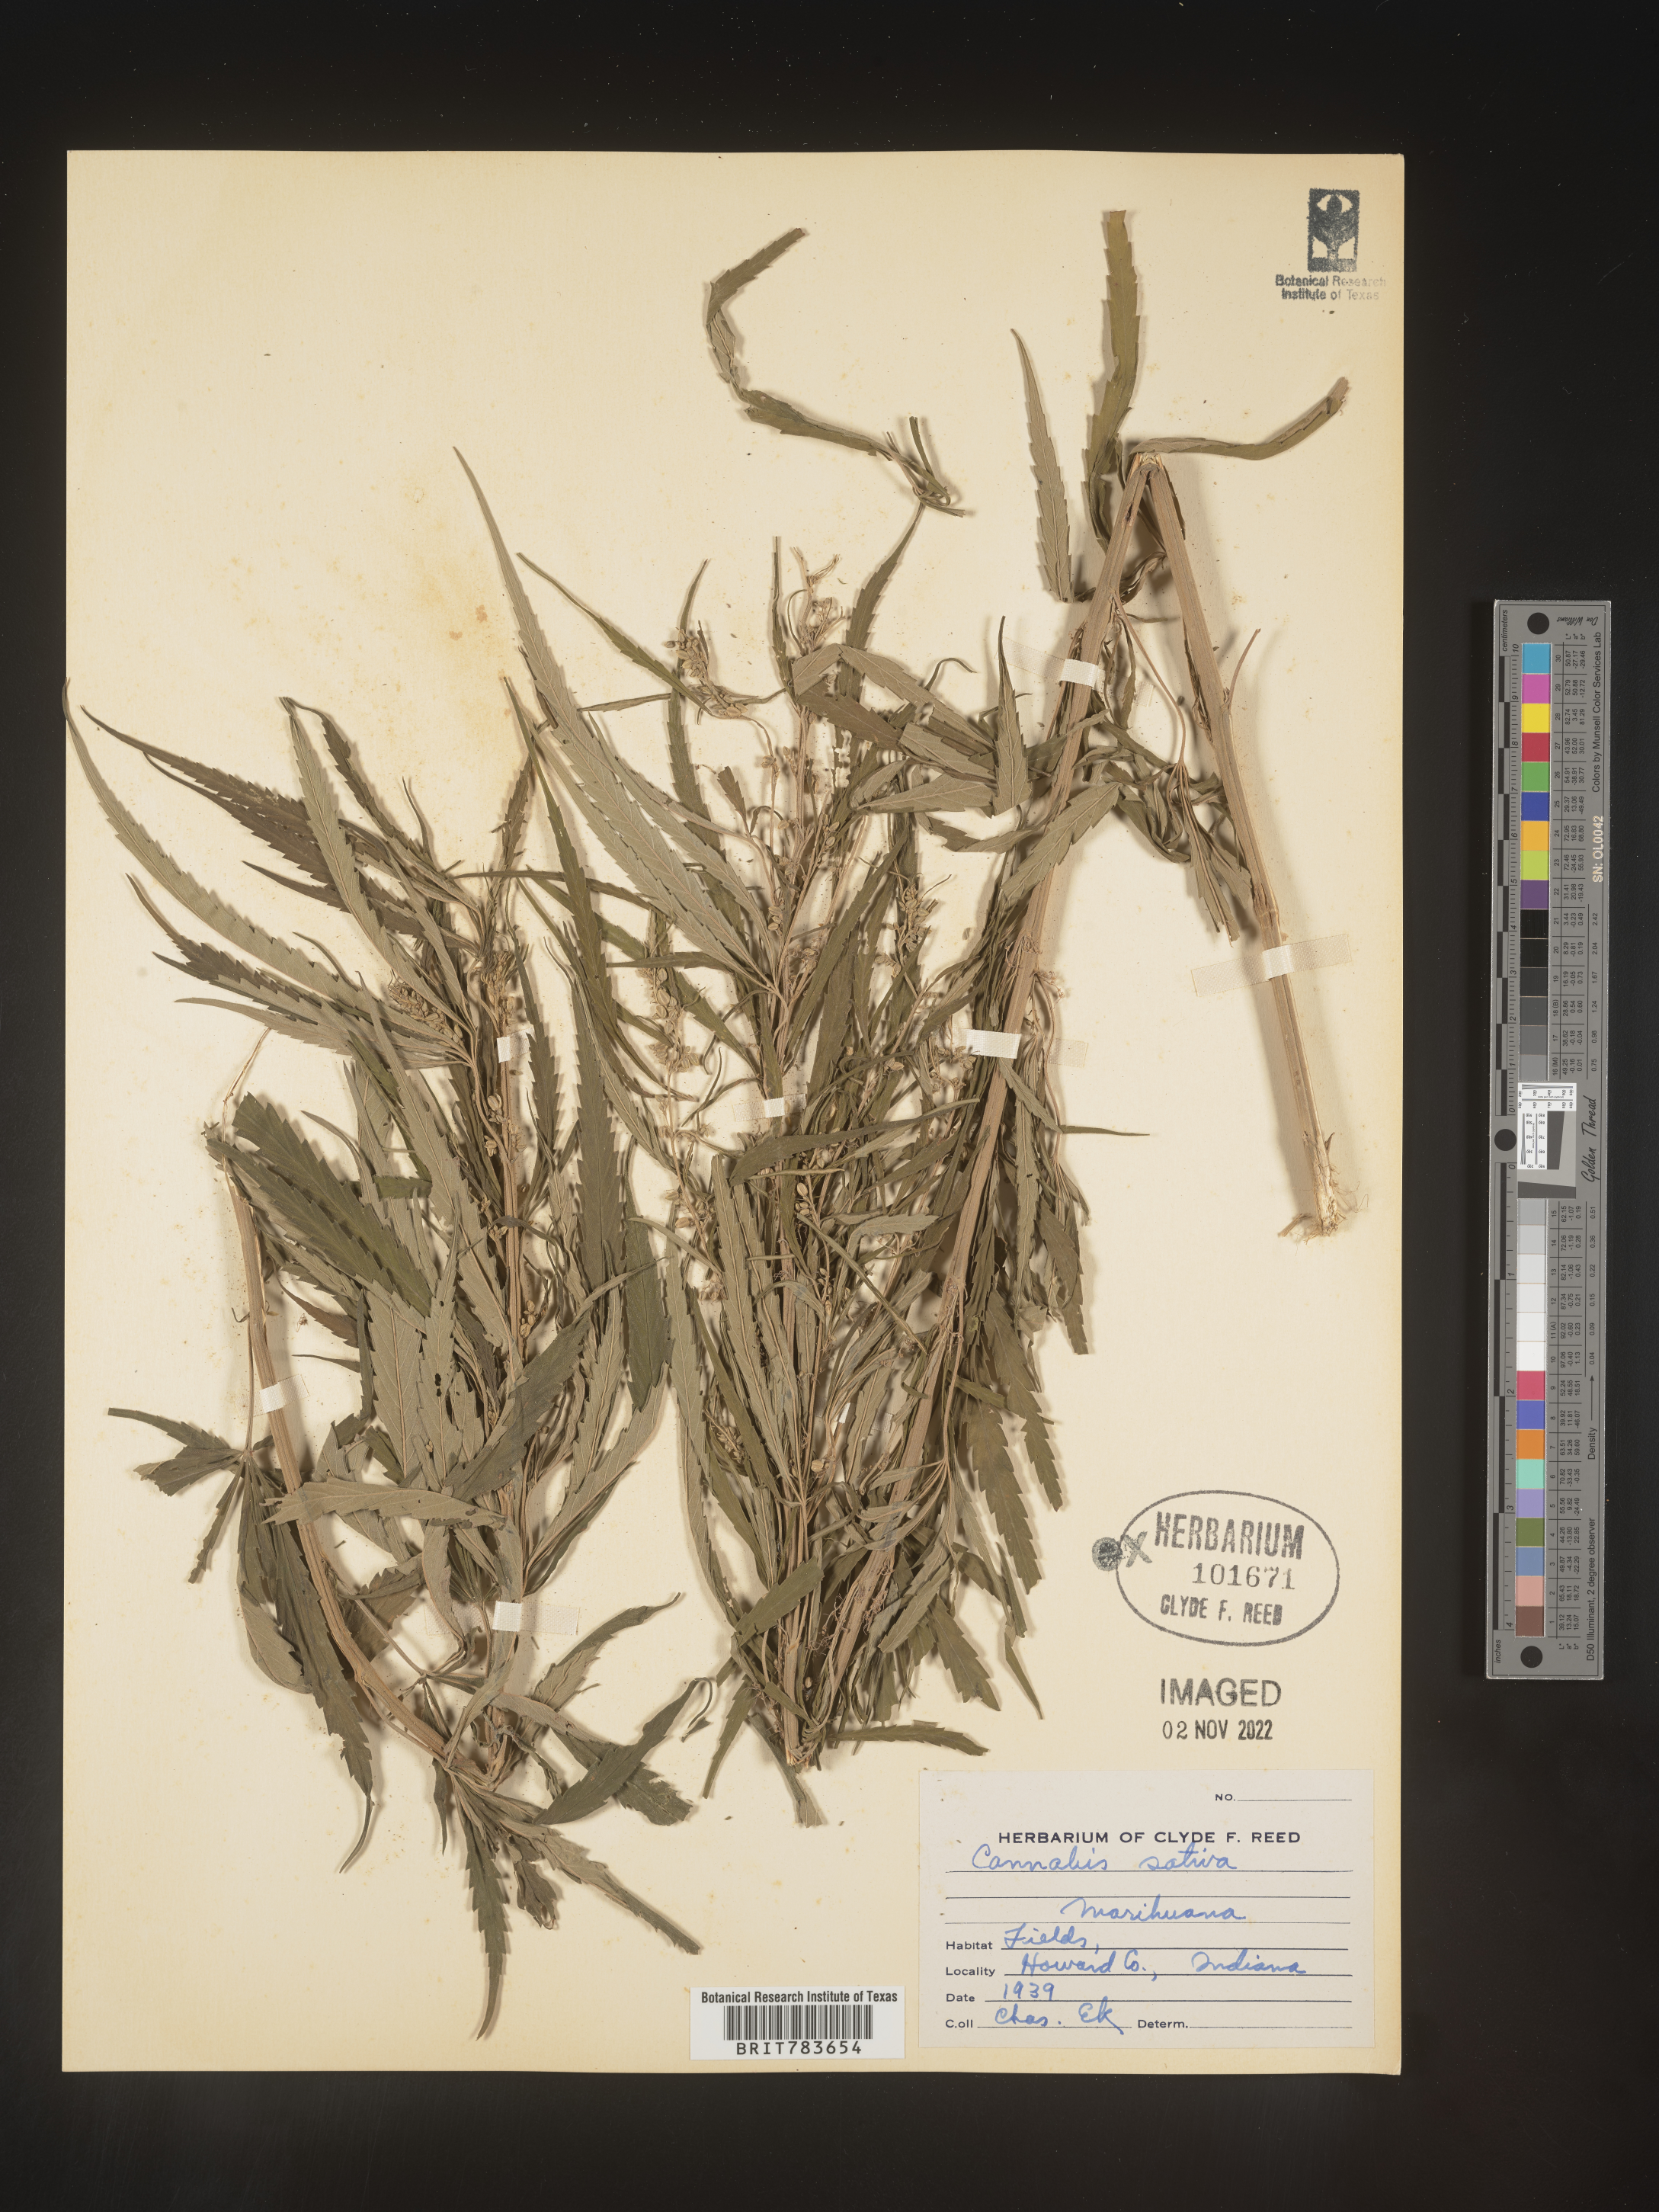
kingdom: Plantae
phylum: Tracheophyta
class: Magnoliopsida
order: Rosales
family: Cannabaceae
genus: Cannabis
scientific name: Cannabis sativa
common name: Hemp
